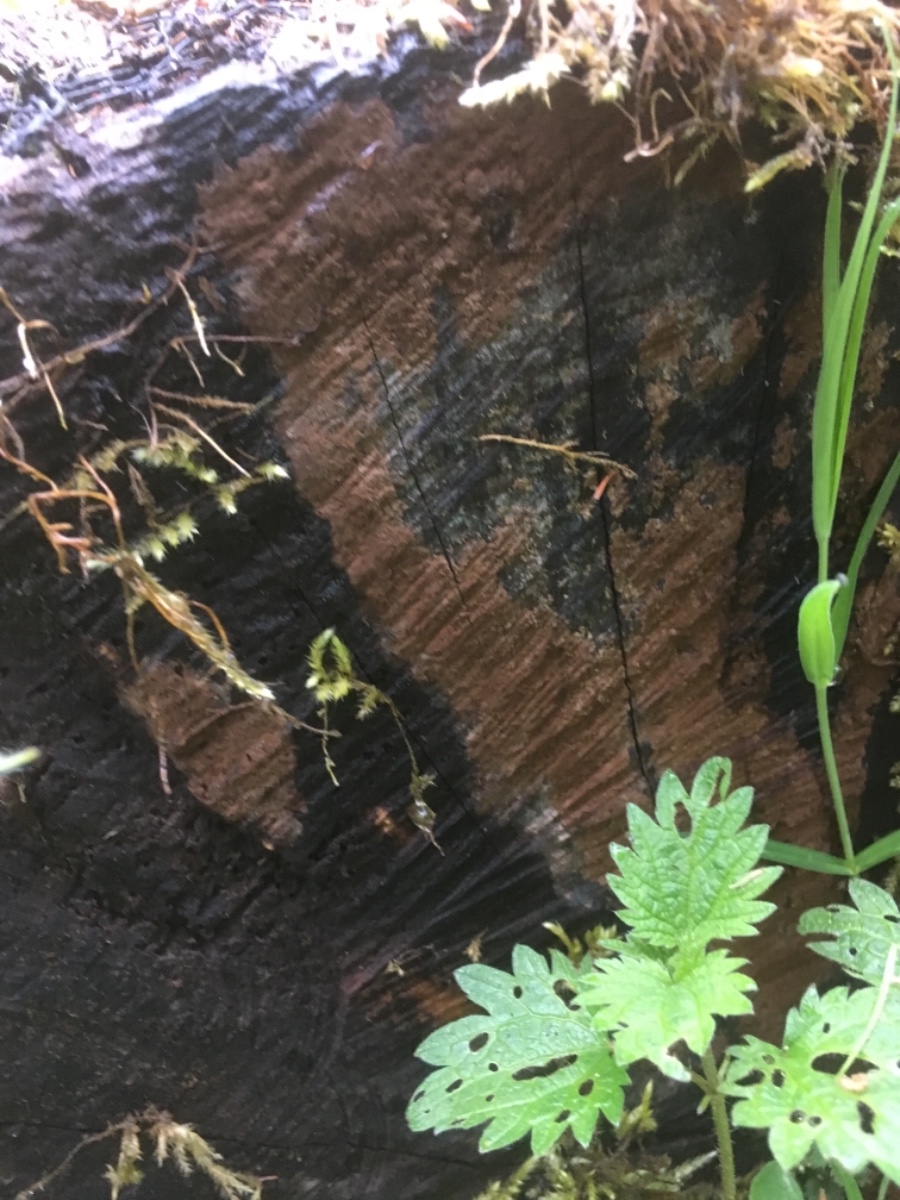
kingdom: Fungi
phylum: Basidiomycota
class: Agaricomycetes
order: Russulales
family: Peniophoraceae
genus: Peniophora
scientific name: Peniophora incarnata
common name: laksefarvet voksskind
